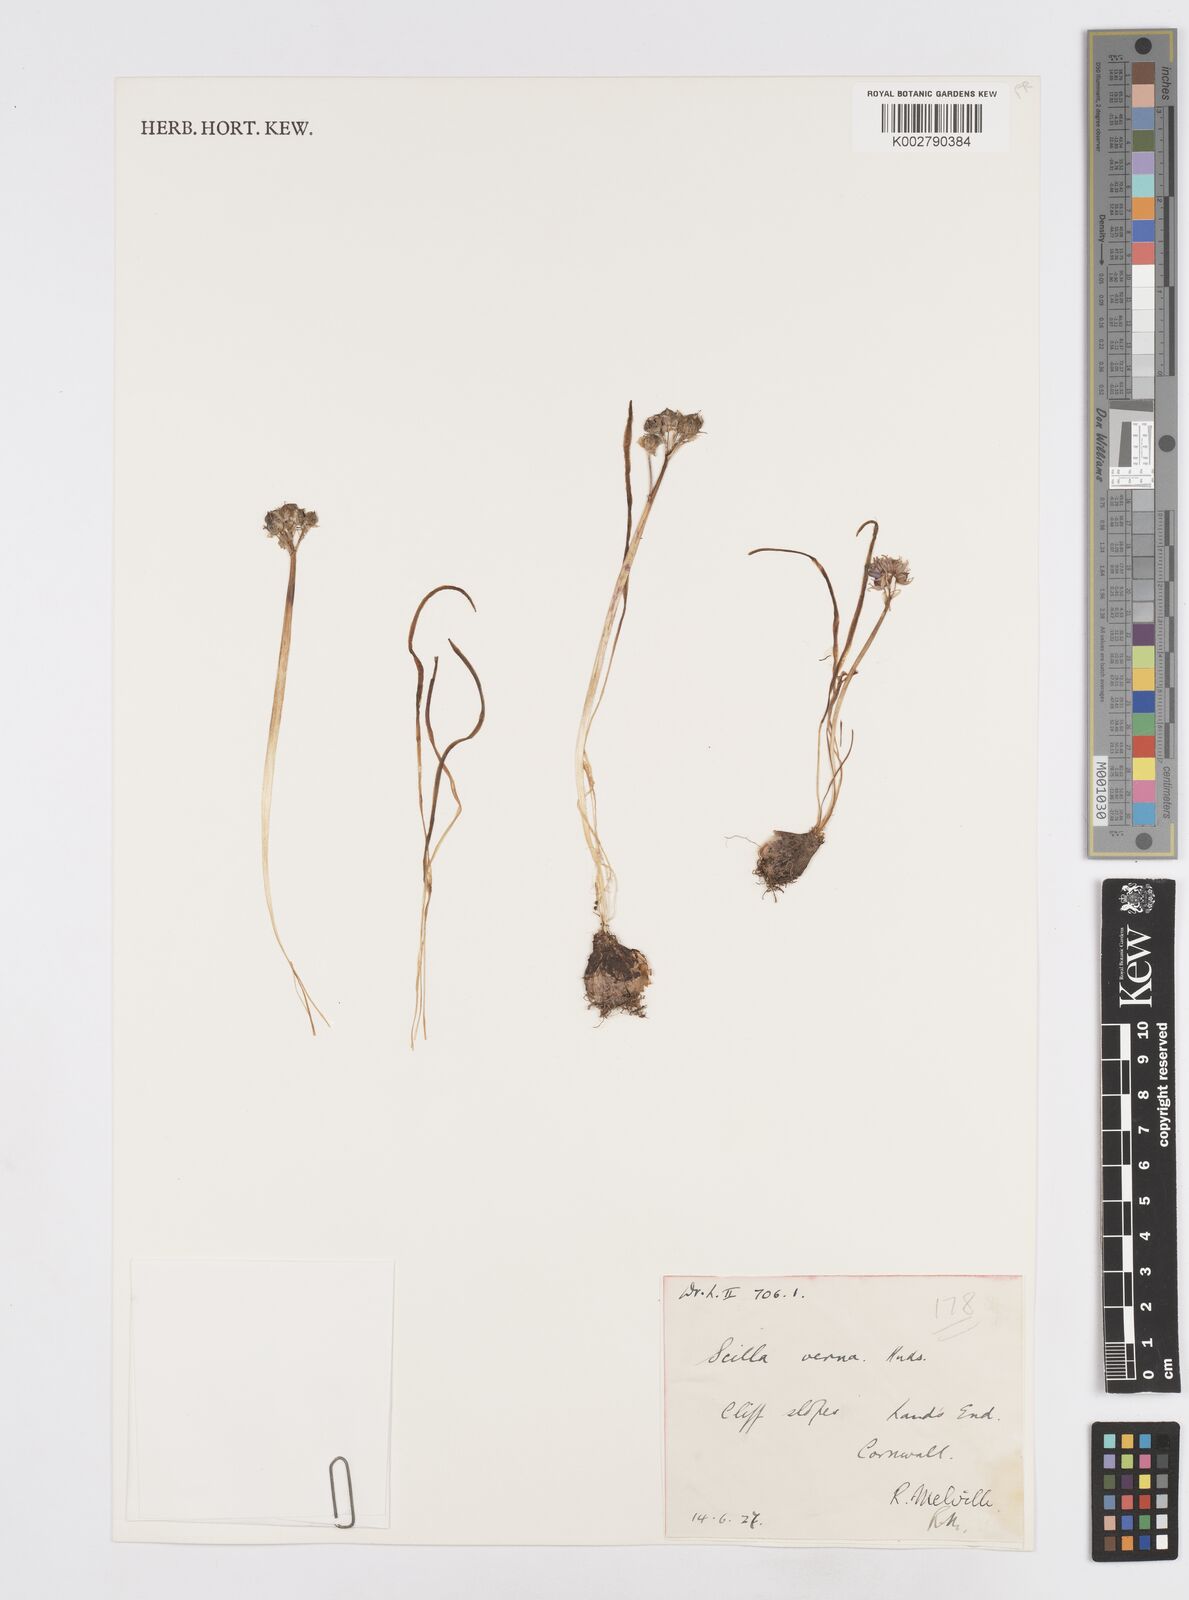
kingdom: Plantae
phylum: Tracheophyta
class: Liliopsida
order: Asparagales
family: Asparagaceae
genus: Scilla
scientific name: Scilla verna
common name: Spring squill
